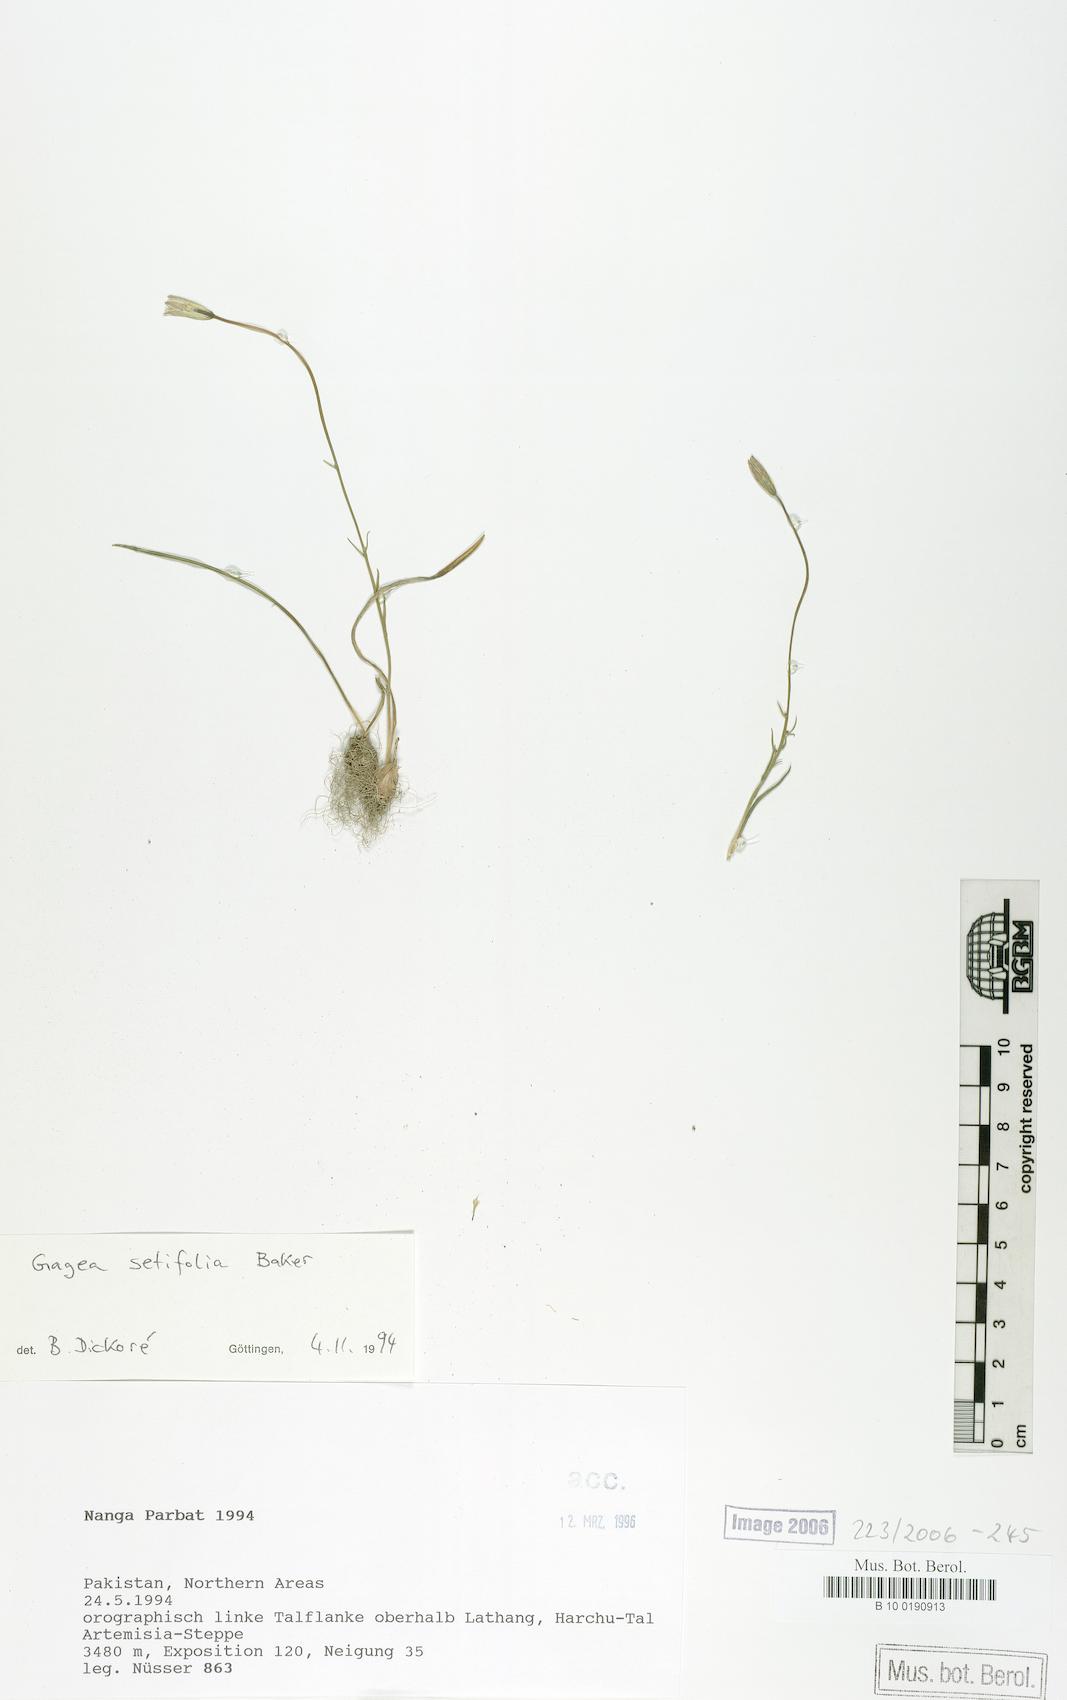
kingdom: Plantae
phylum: Tracheophyta
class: Liliopsida
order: Liliales
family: Liliaceae
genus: Gagea
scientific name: Gagea setifolia
